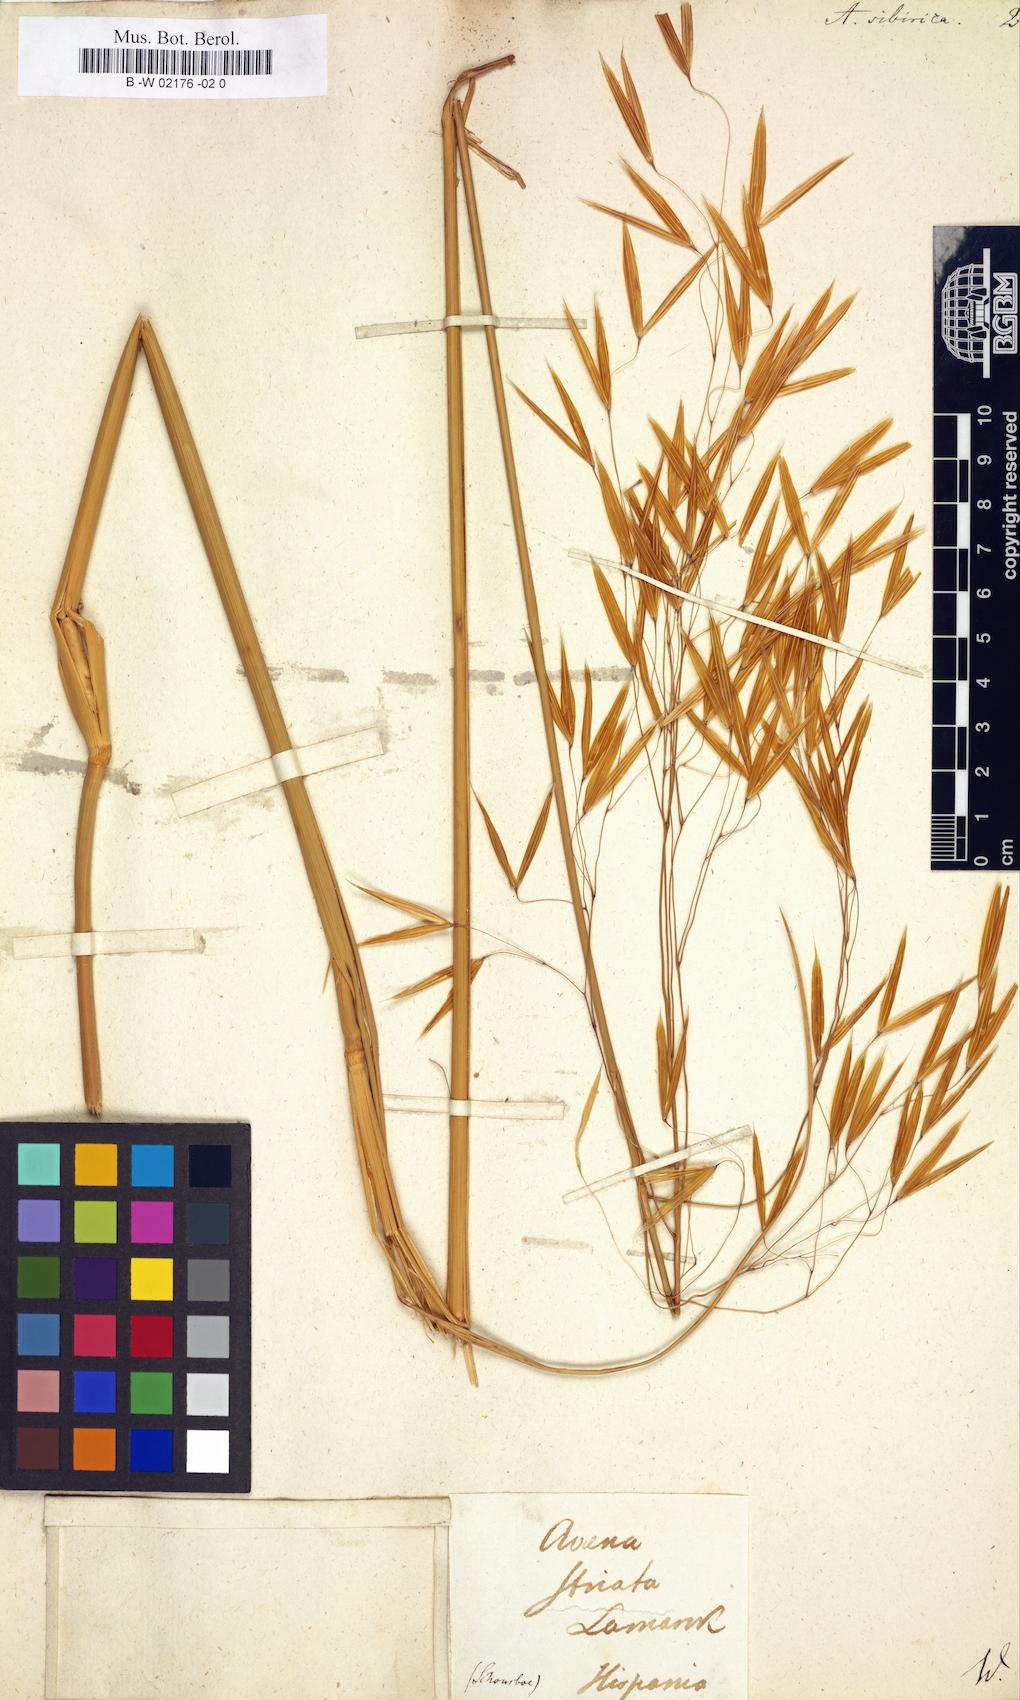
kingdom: Plantae
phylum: Tracheophyta
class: Liliopsida
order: Poales
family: Poaceae
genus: Achnatherum
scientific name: Achnatherum sibiricum
